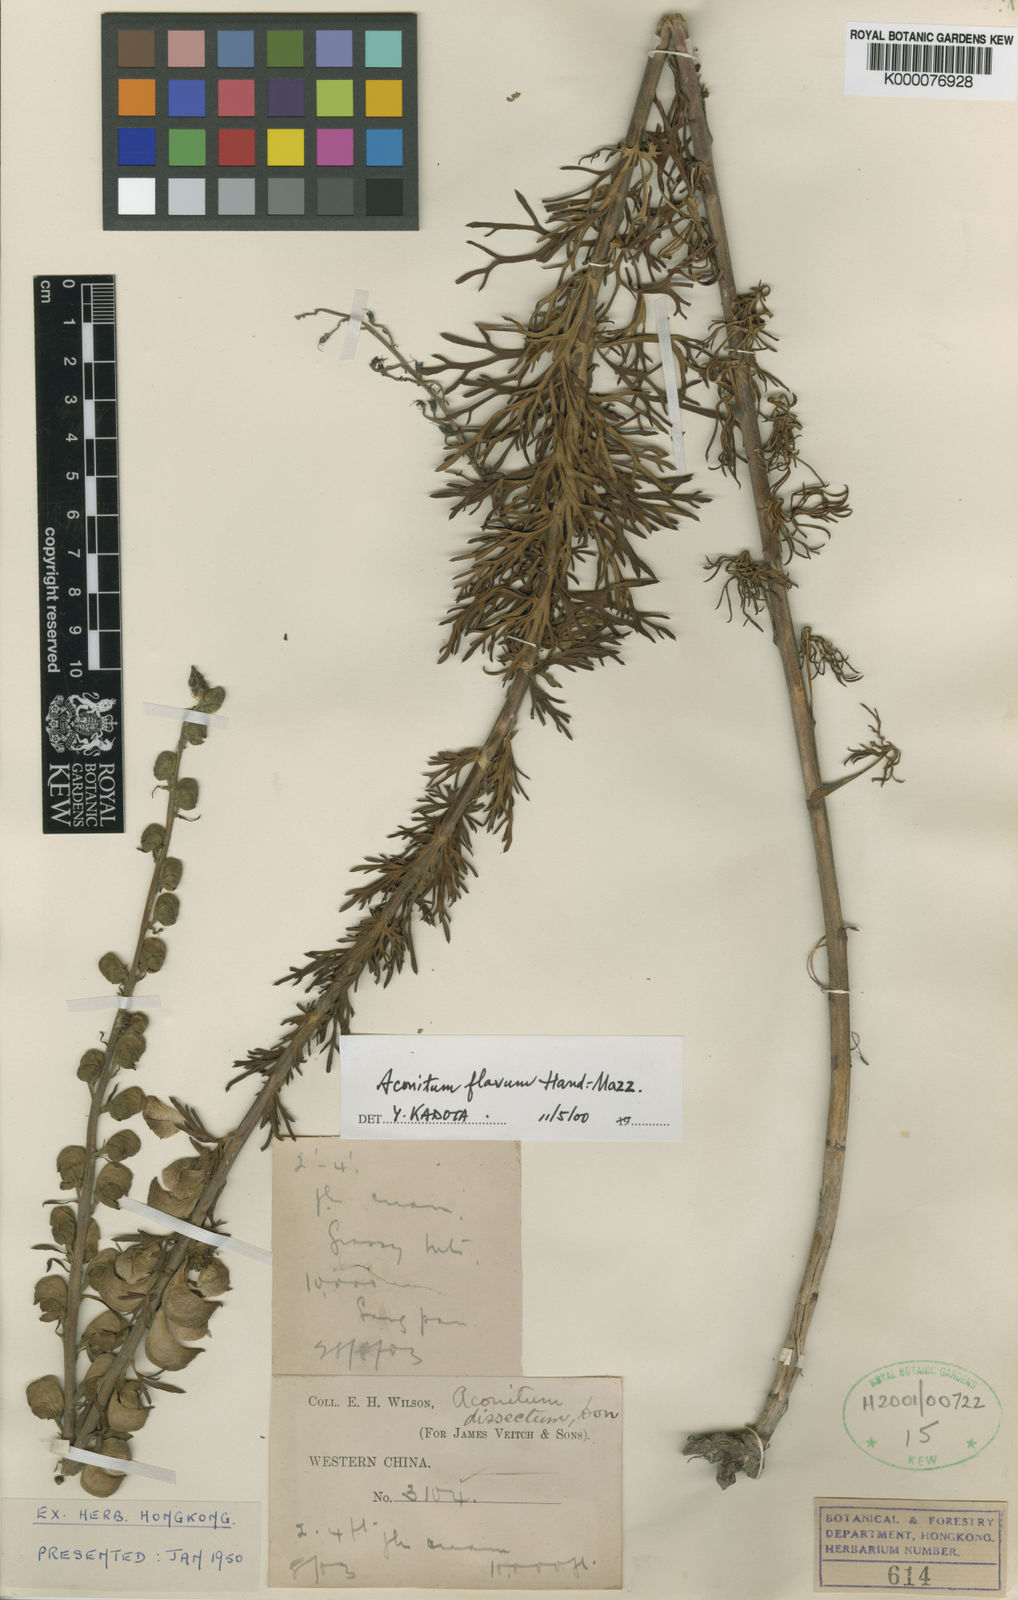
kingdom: Plantae
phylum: Tracheophyta
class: Magnoliopsida
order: Ranunculales
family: Ranunculaceae
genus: Aconitum
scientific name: Aconitum flavum
